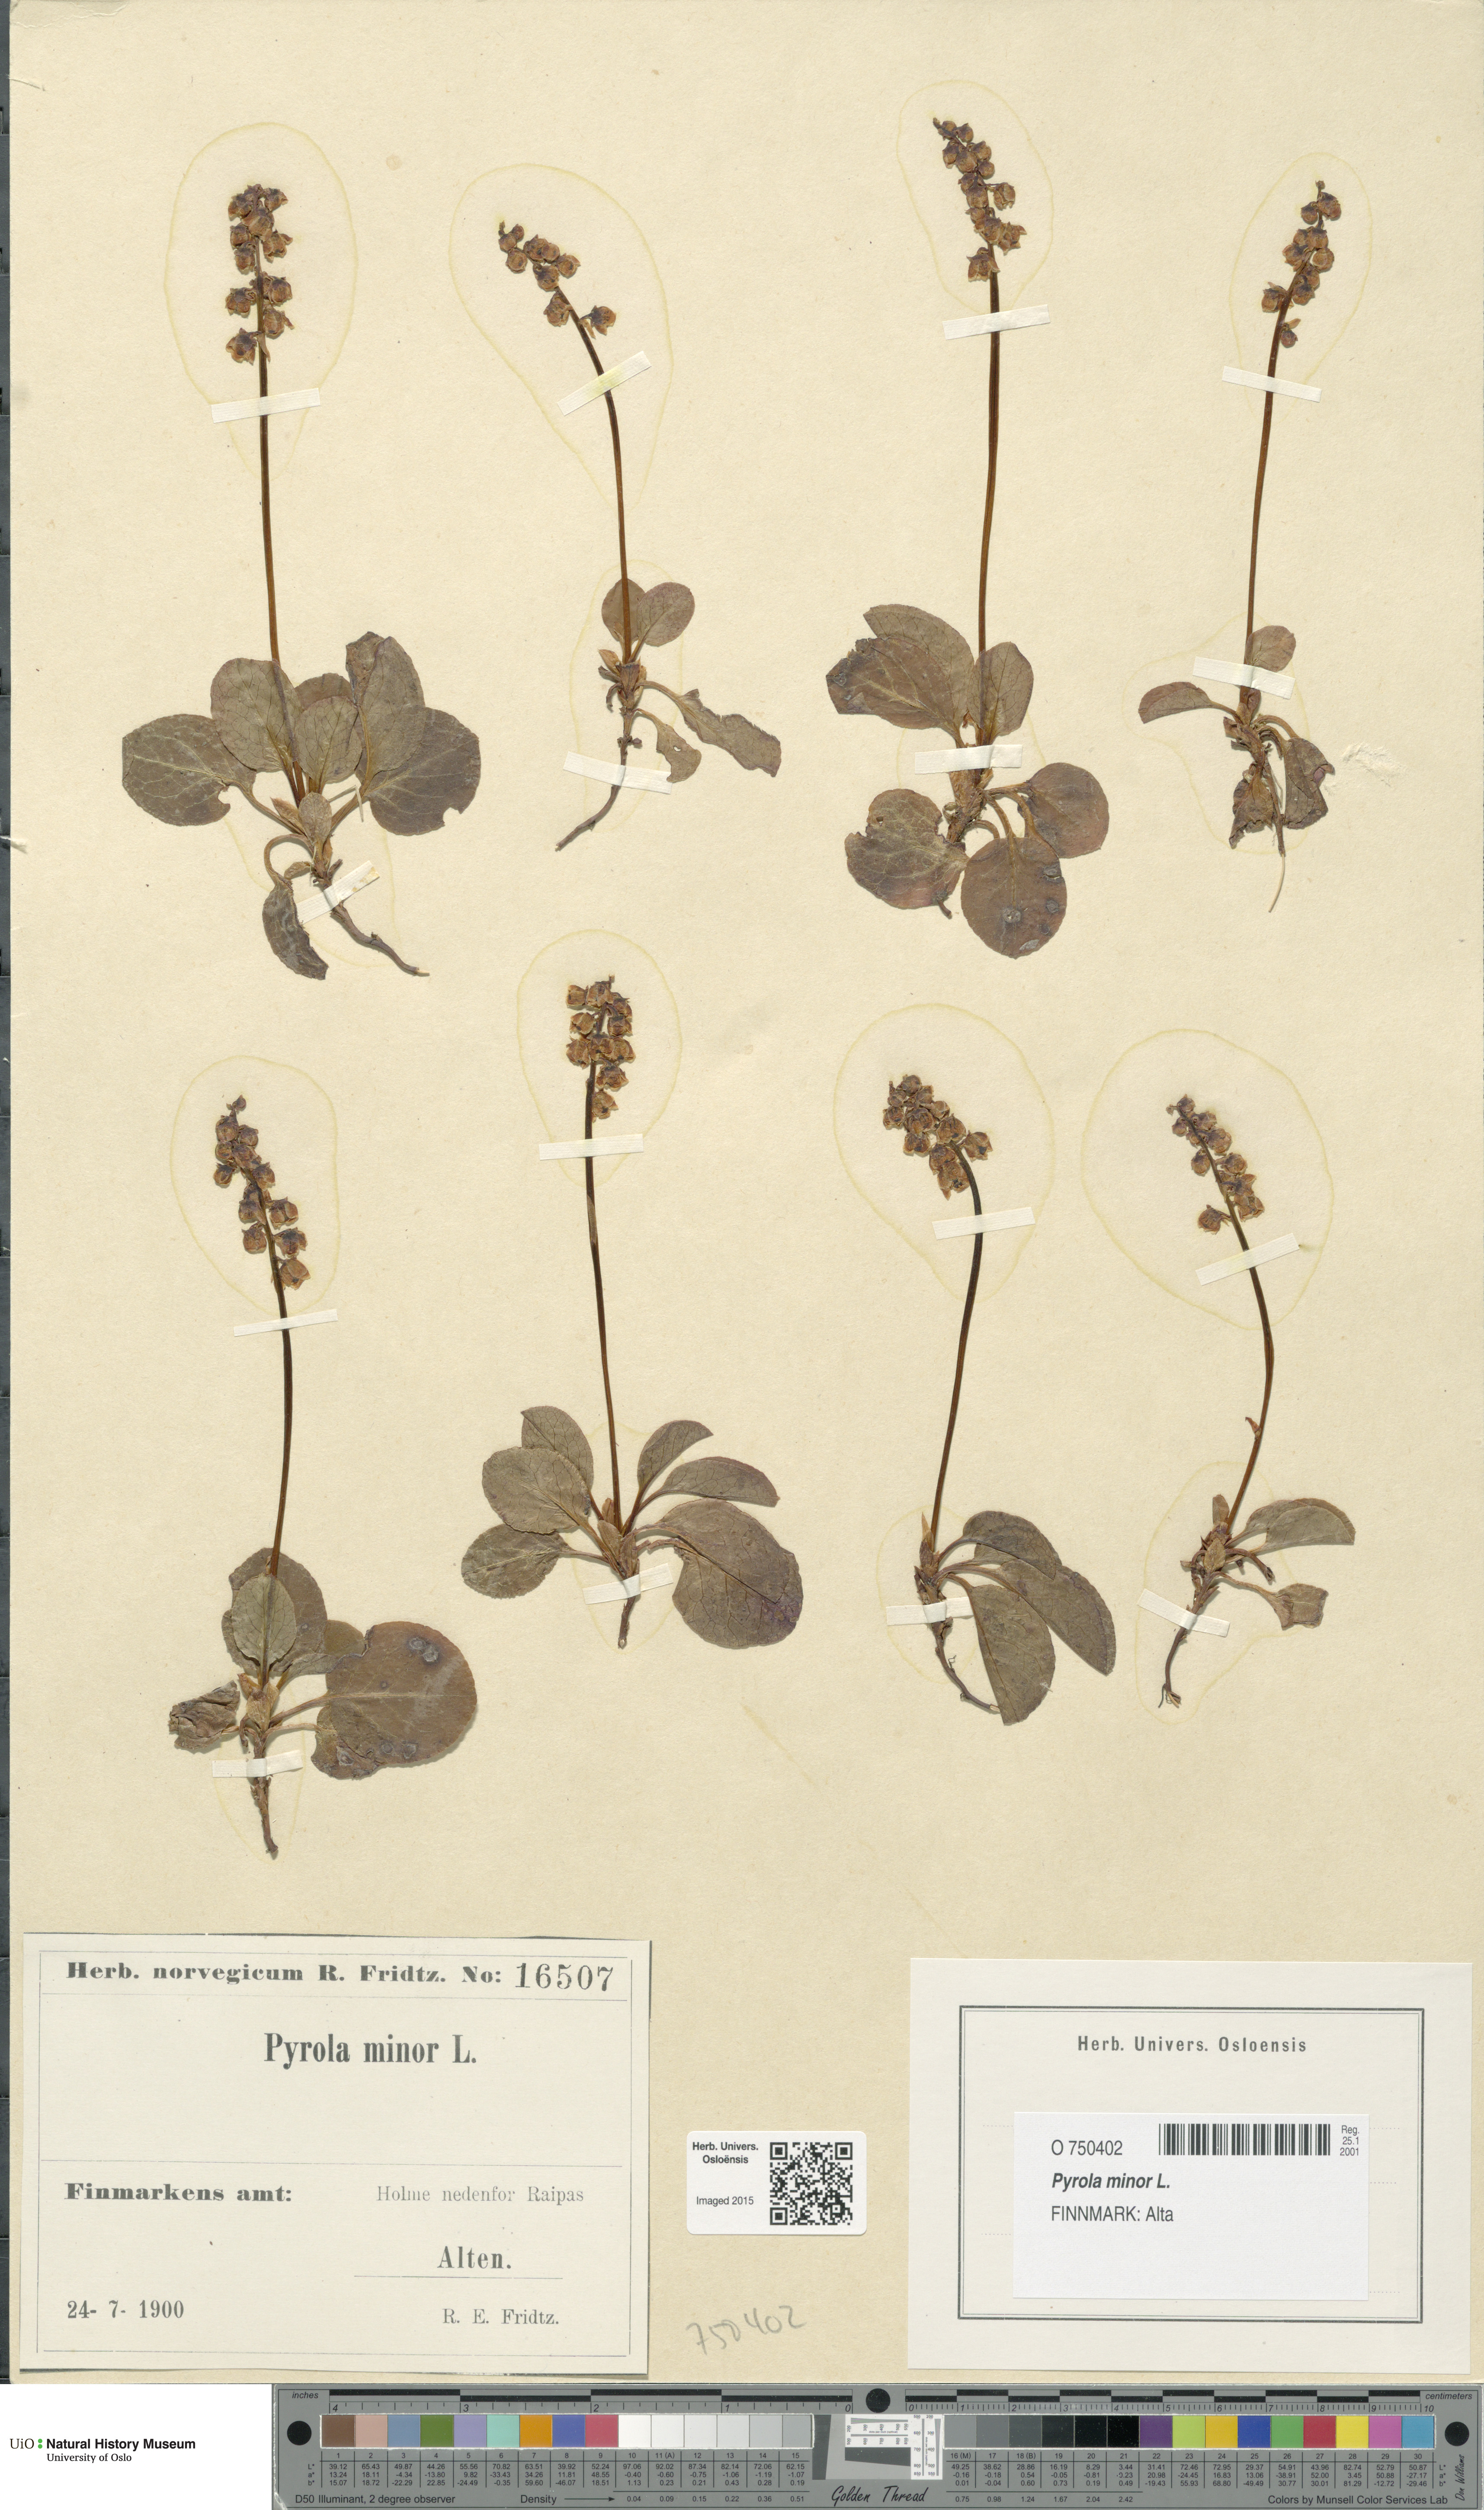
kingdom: Plantae
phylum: Tracheophyta
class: Magnoliopsida
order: Ericales
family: Ericaceae
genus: Pyrola
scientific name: Pyrola minor
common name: Common wintergreen
